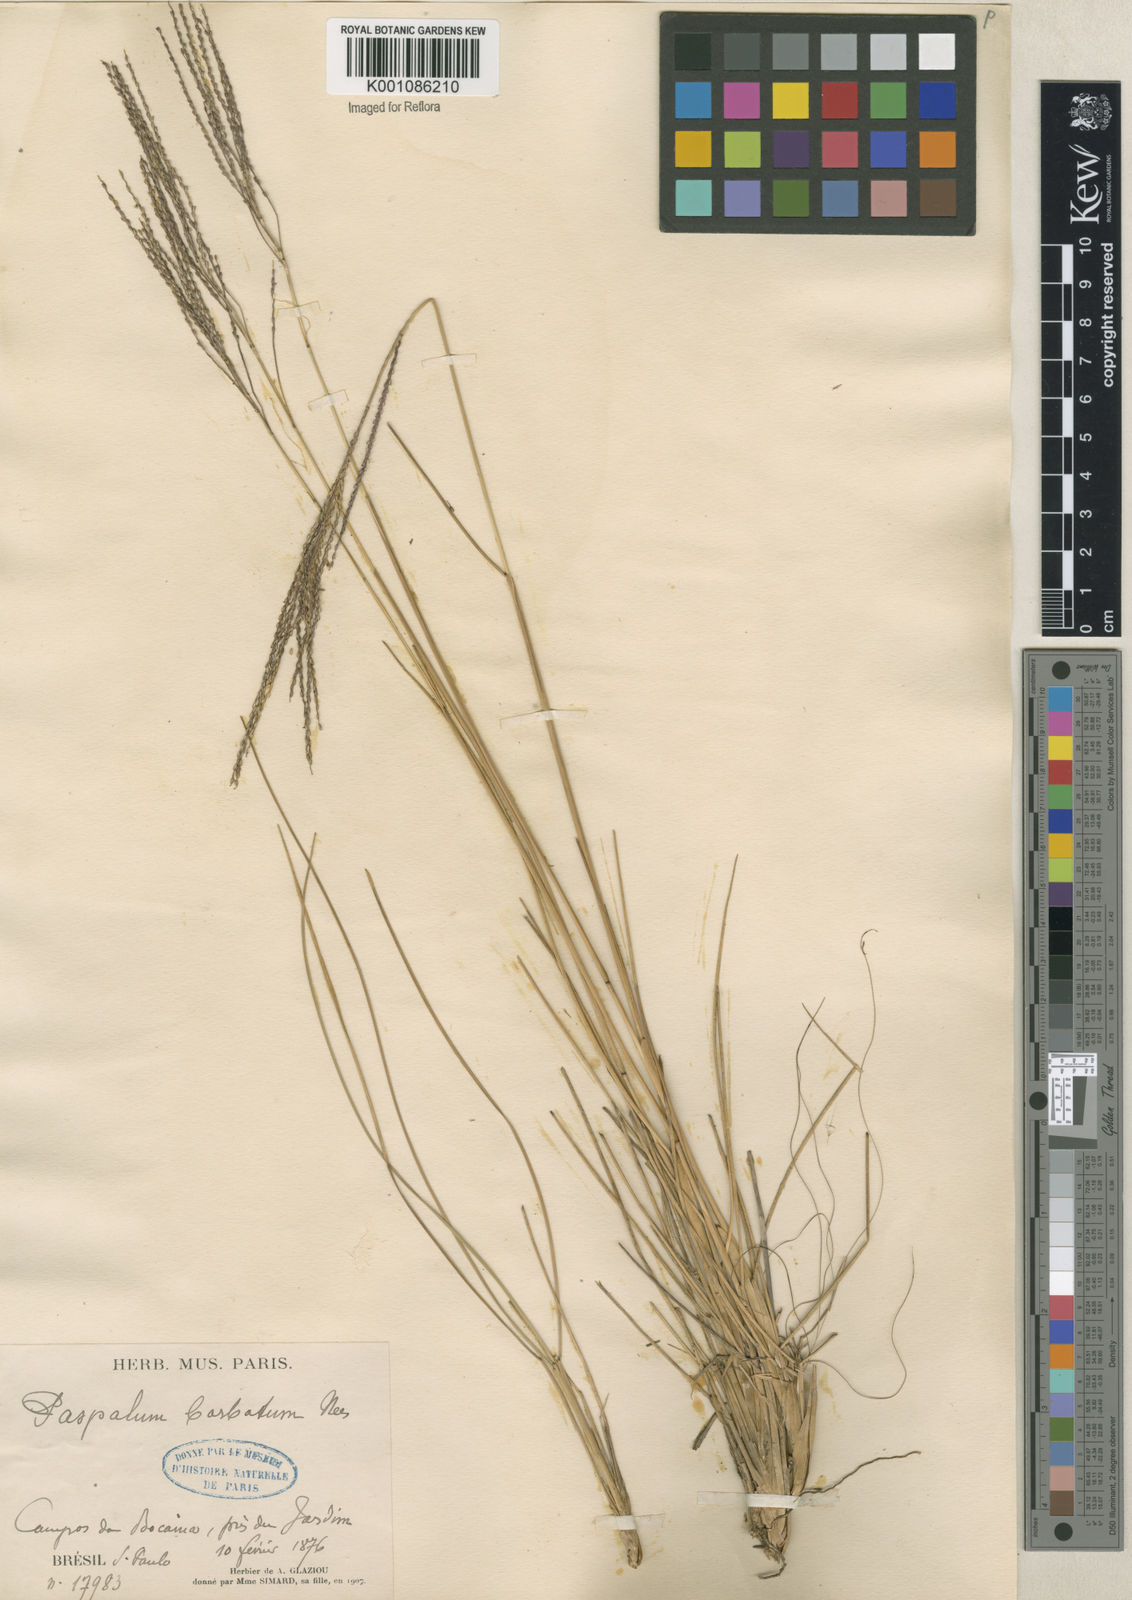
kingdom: Plantae
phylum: Tracheophyta
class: Liliopsida
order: Poales
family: Poaceae
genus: Axonopus
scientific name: Axonopus
